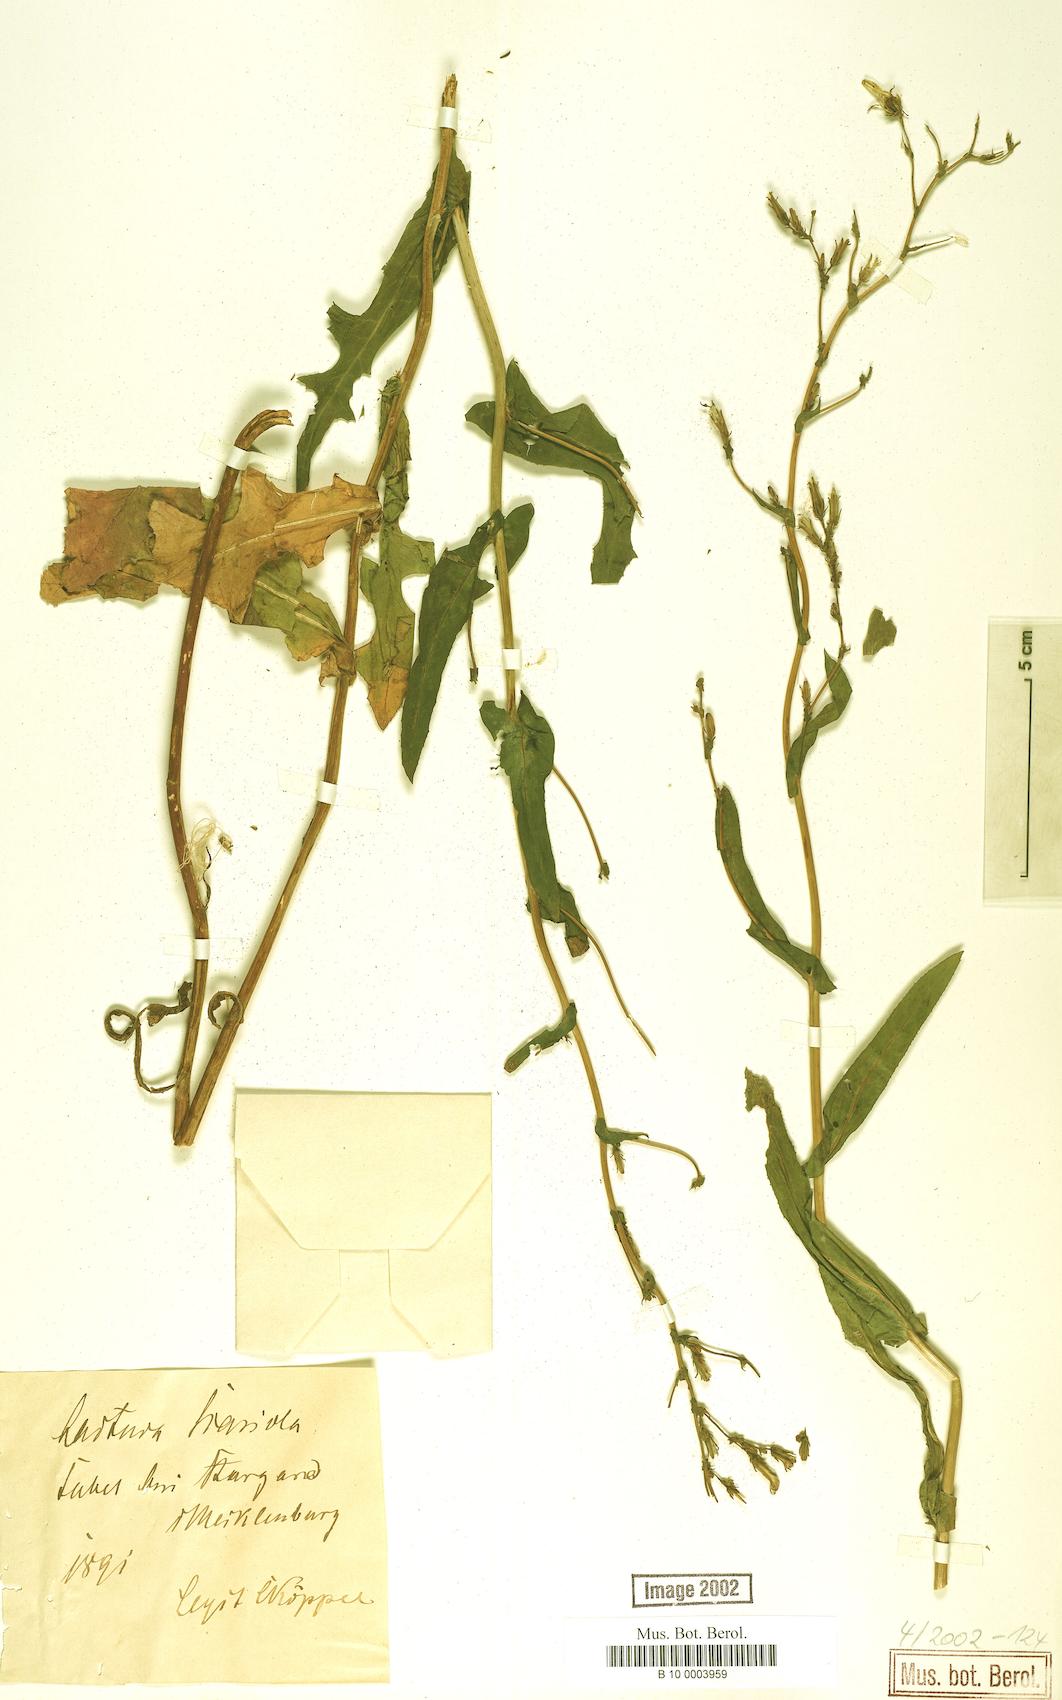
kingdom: Plantae
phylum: Tracheophyta
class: Magnoliopsida
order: Asterales
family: Asteraceae
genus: Lactuca
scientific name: Lactuca serriola
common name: Prickly lettuce
